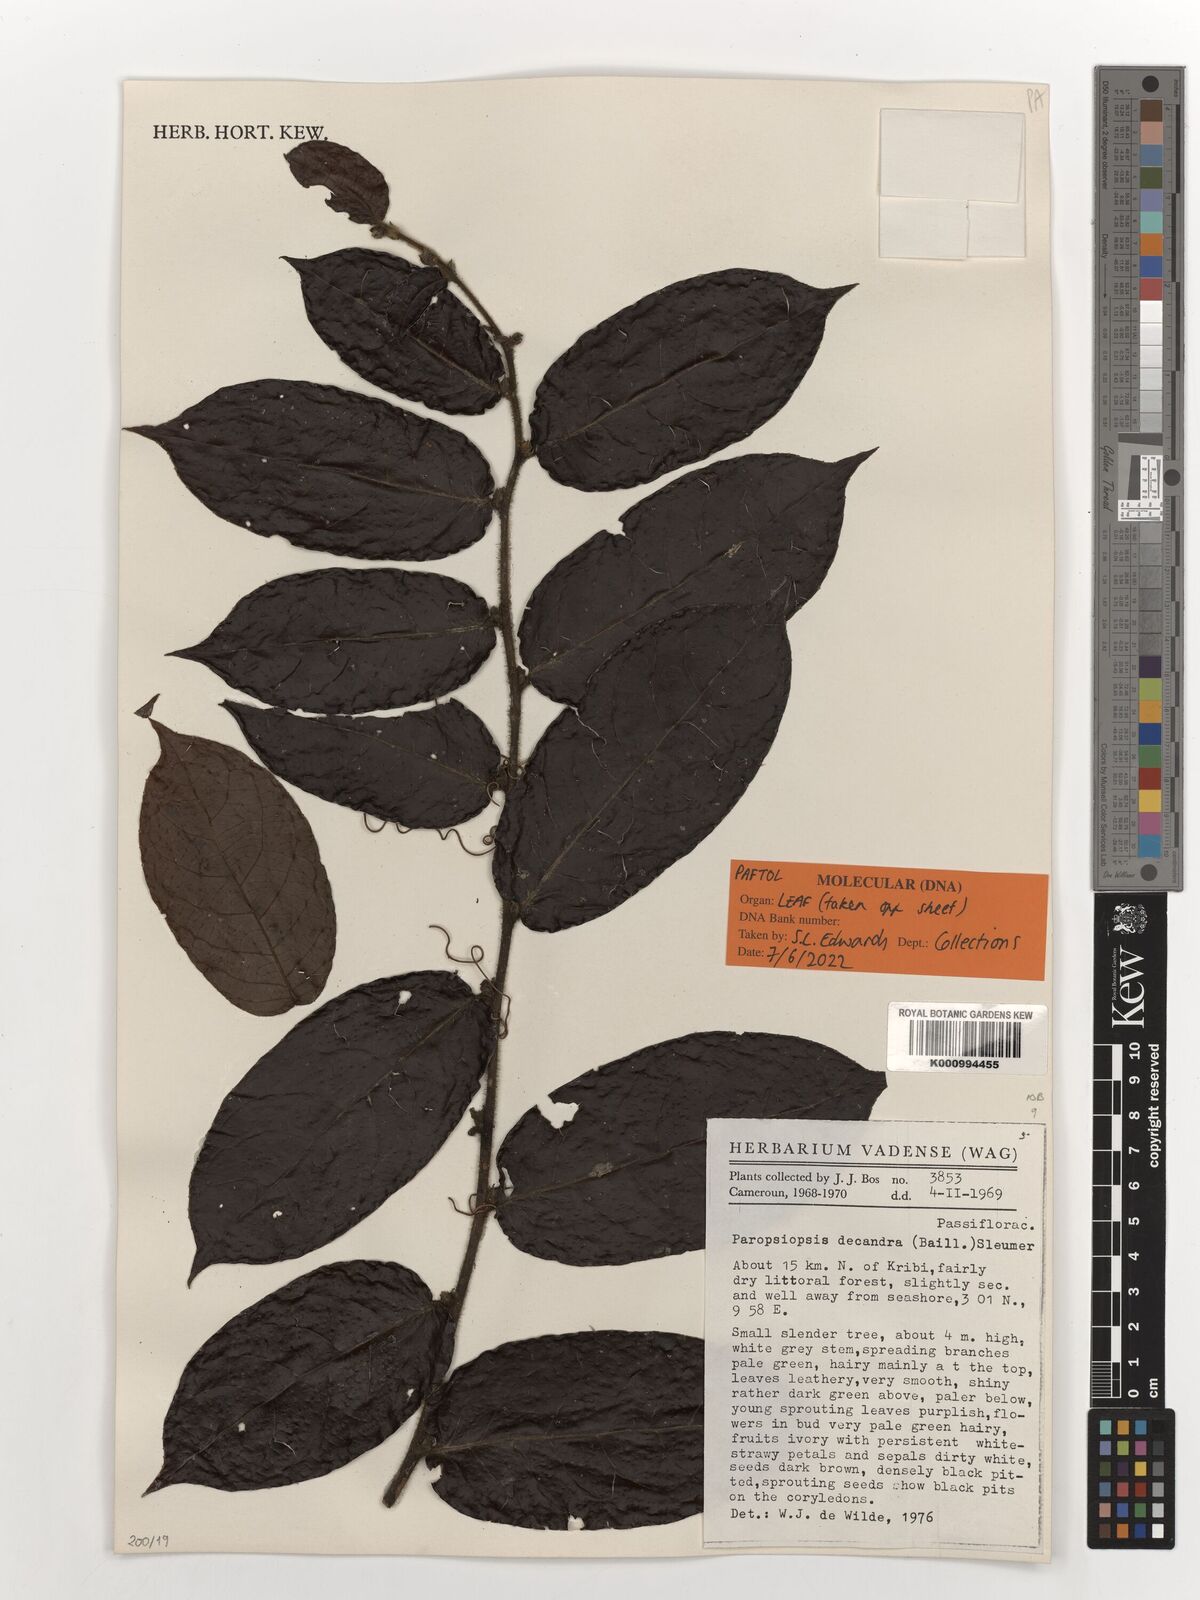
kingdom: Plantae
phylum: Tracheophyta
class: Magnoliopsida
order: Malpighiales
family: Passifloraceae
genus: Paropsiopsis
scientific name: Paropsiopsis decandra
